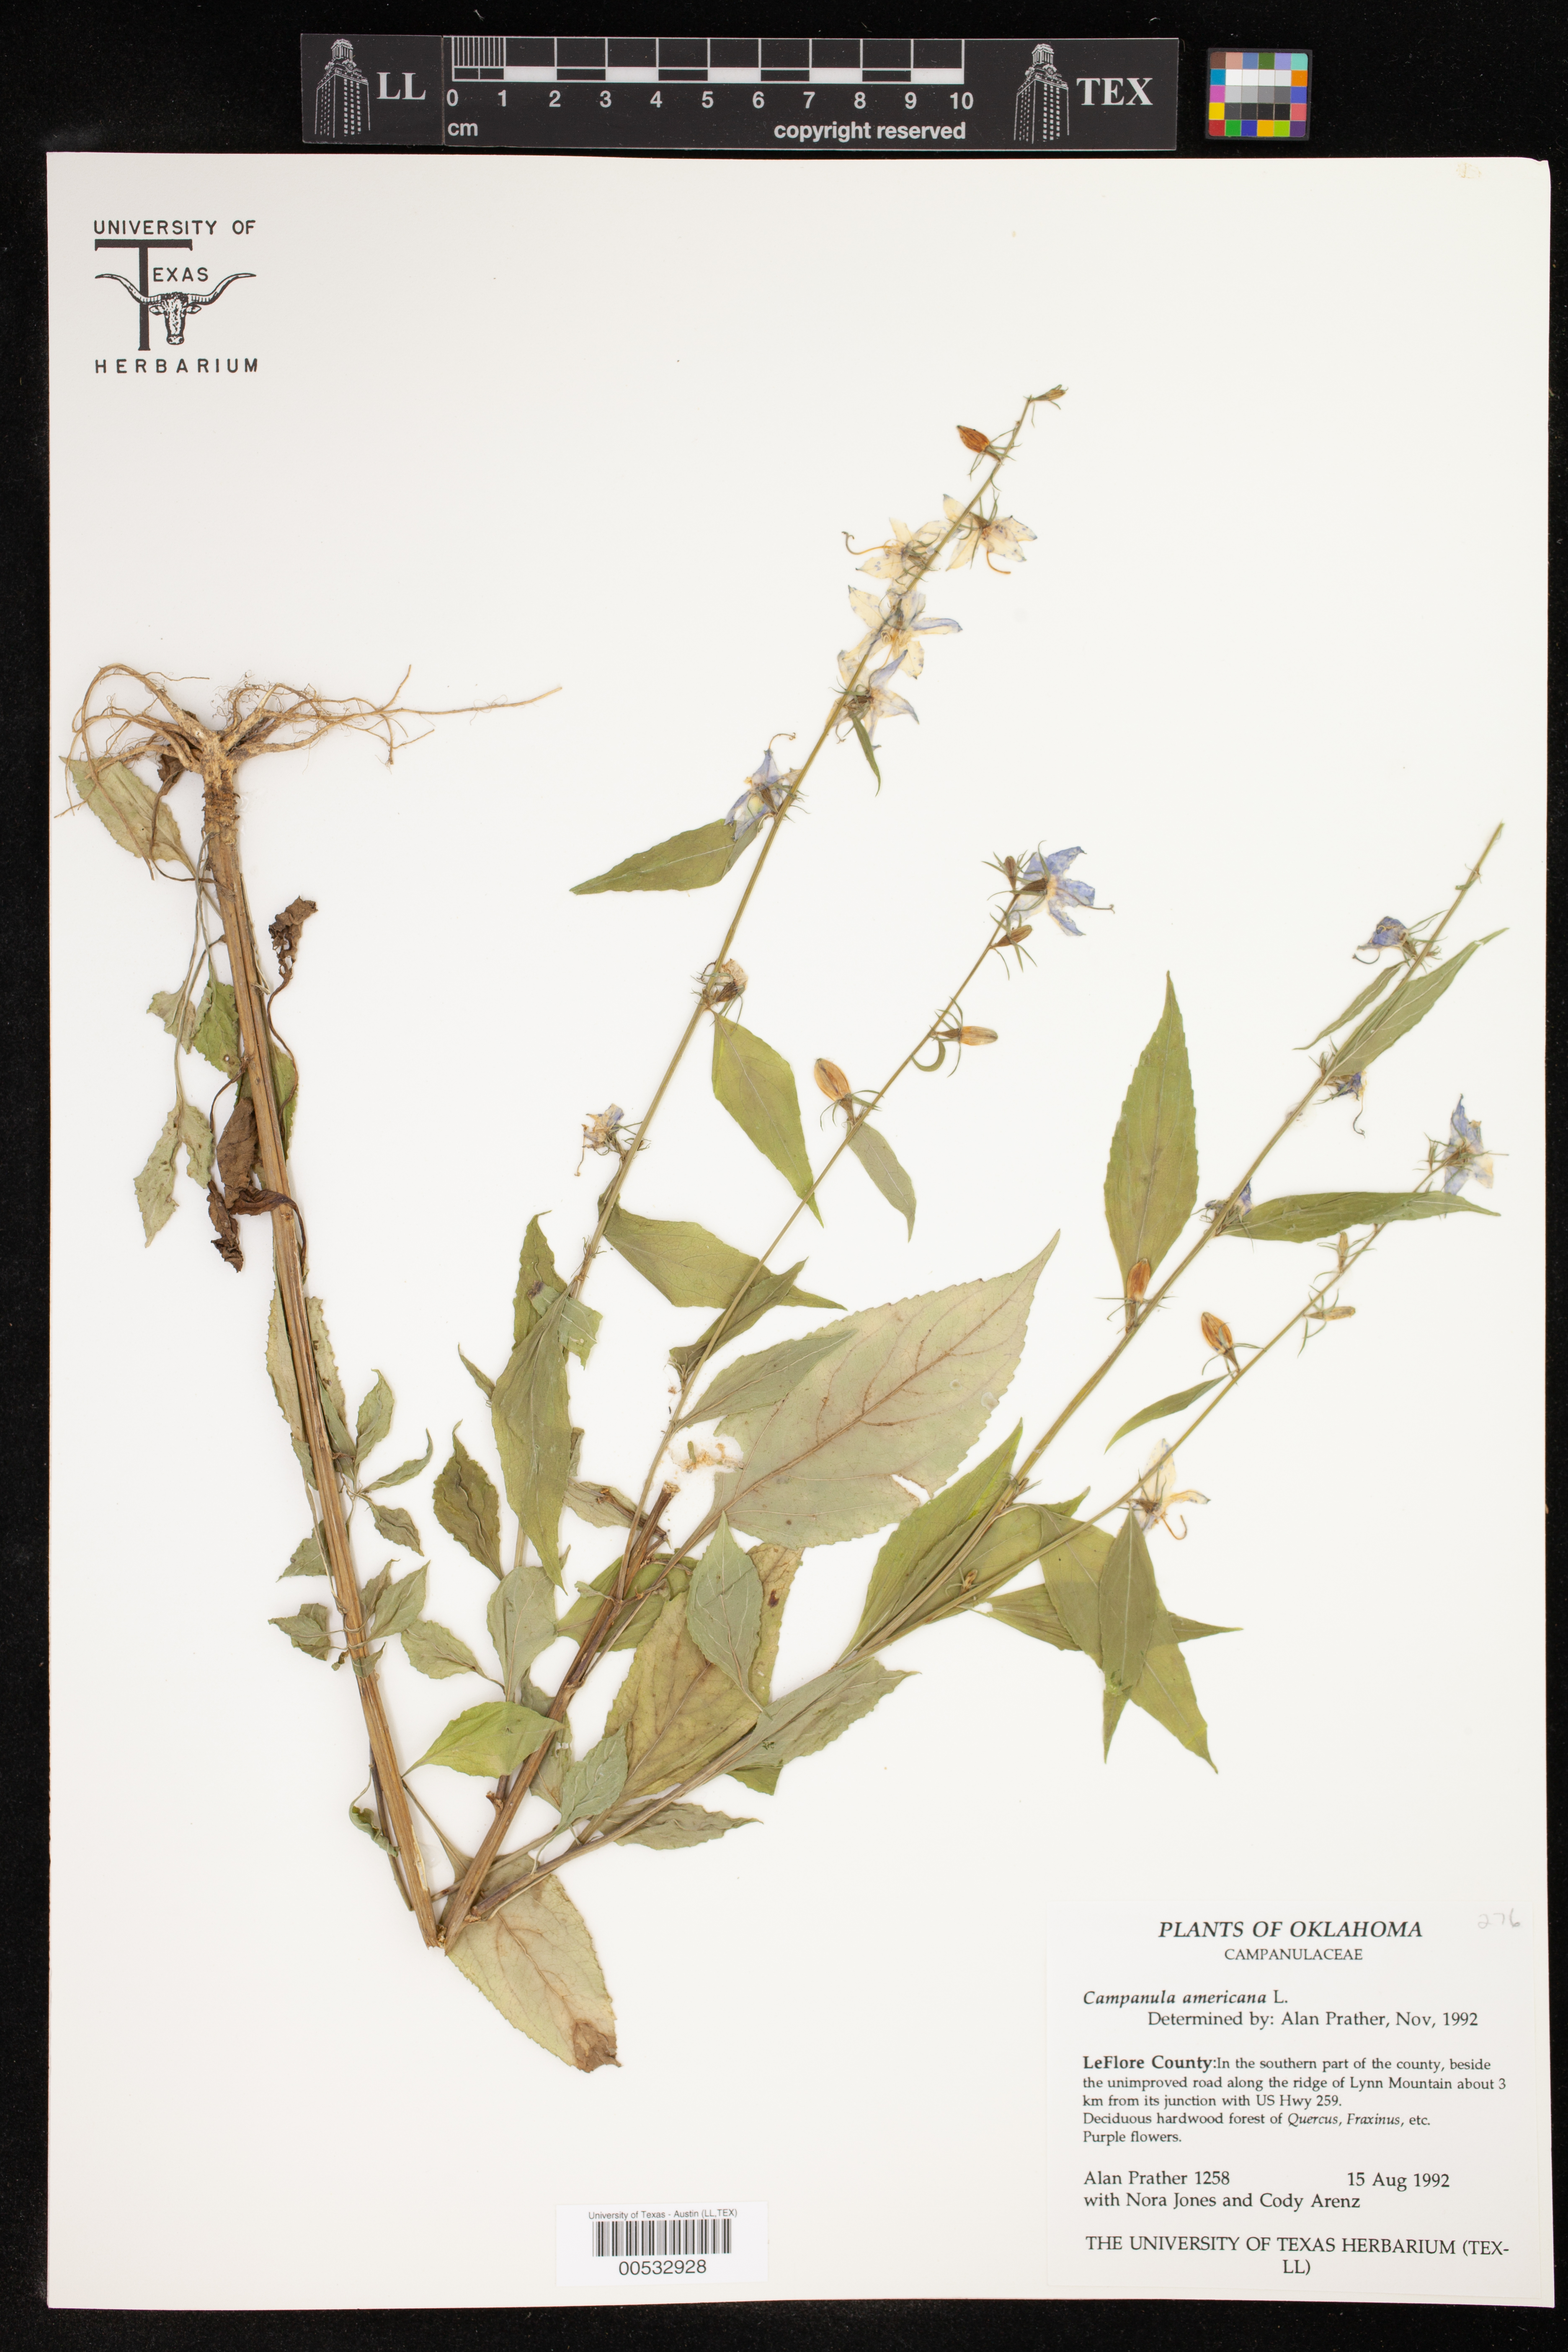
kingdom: Plantae
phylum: Tracheophyta
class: Magnoliopsida
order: Asterales
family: Campanulaceae
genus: Campanula
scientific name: Campanula americana
